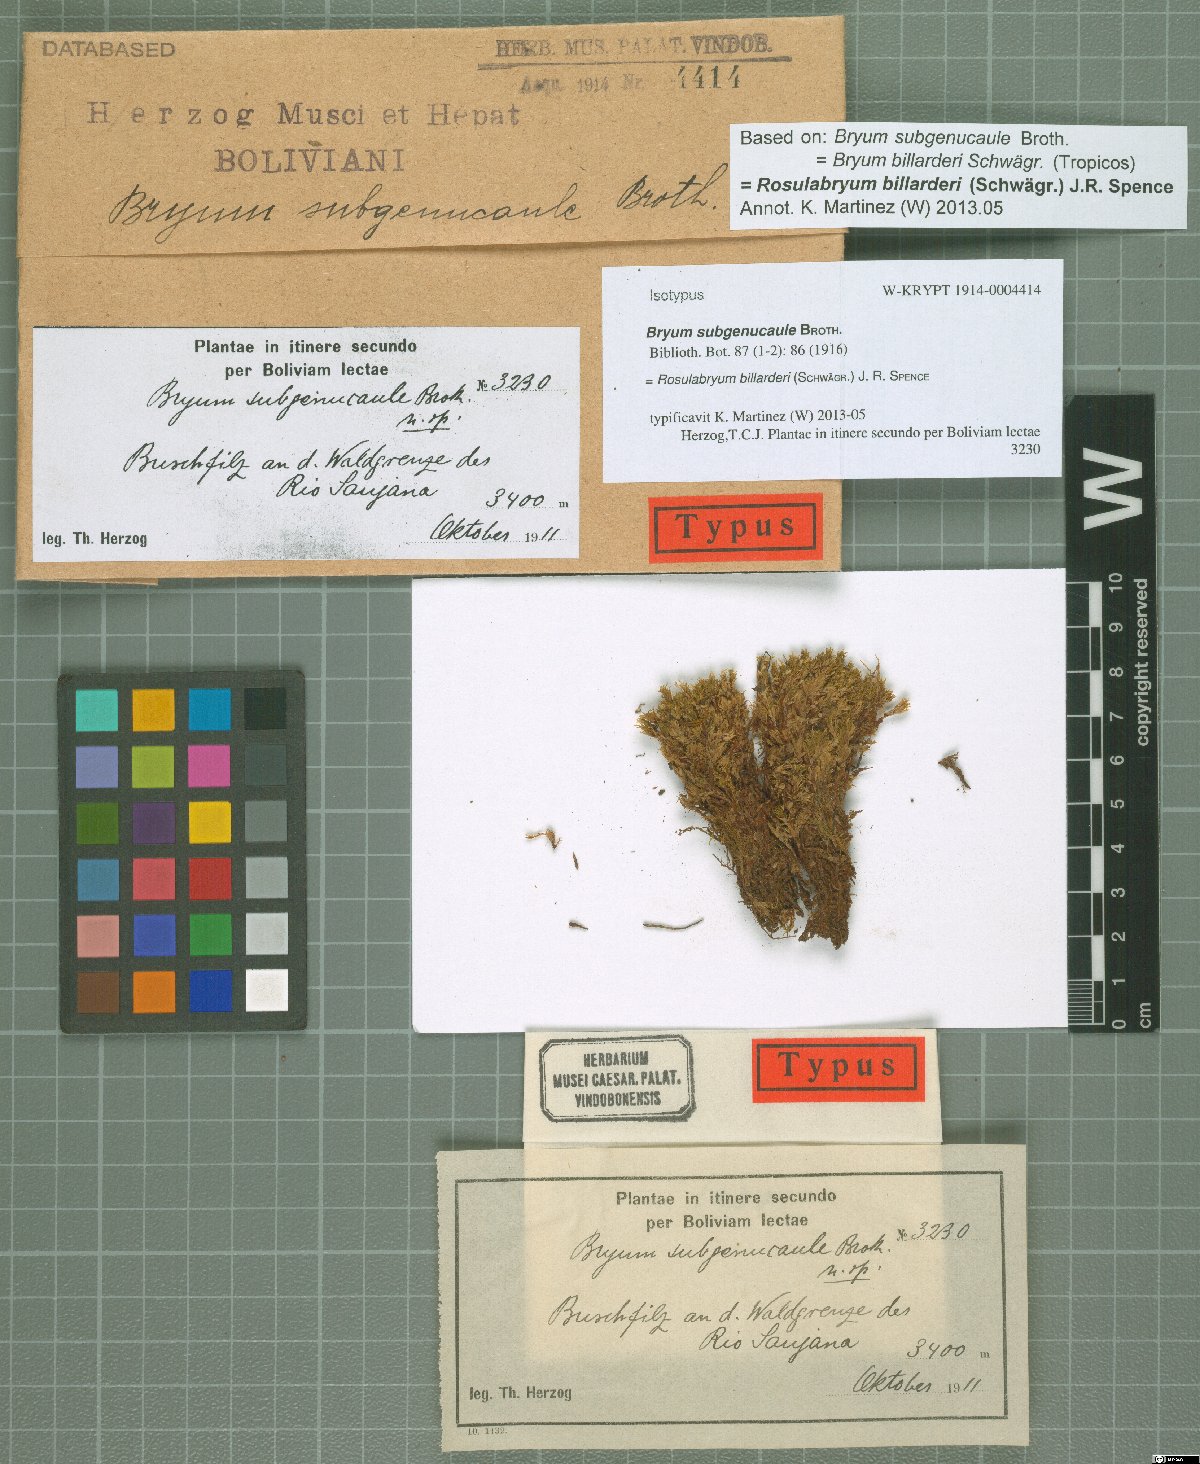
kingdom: Plantae
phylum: Bryophyta
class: Bryopsida
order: Bryales
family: Bryaceae
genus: Rosulabryum
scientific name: Rosulabryum andicola
